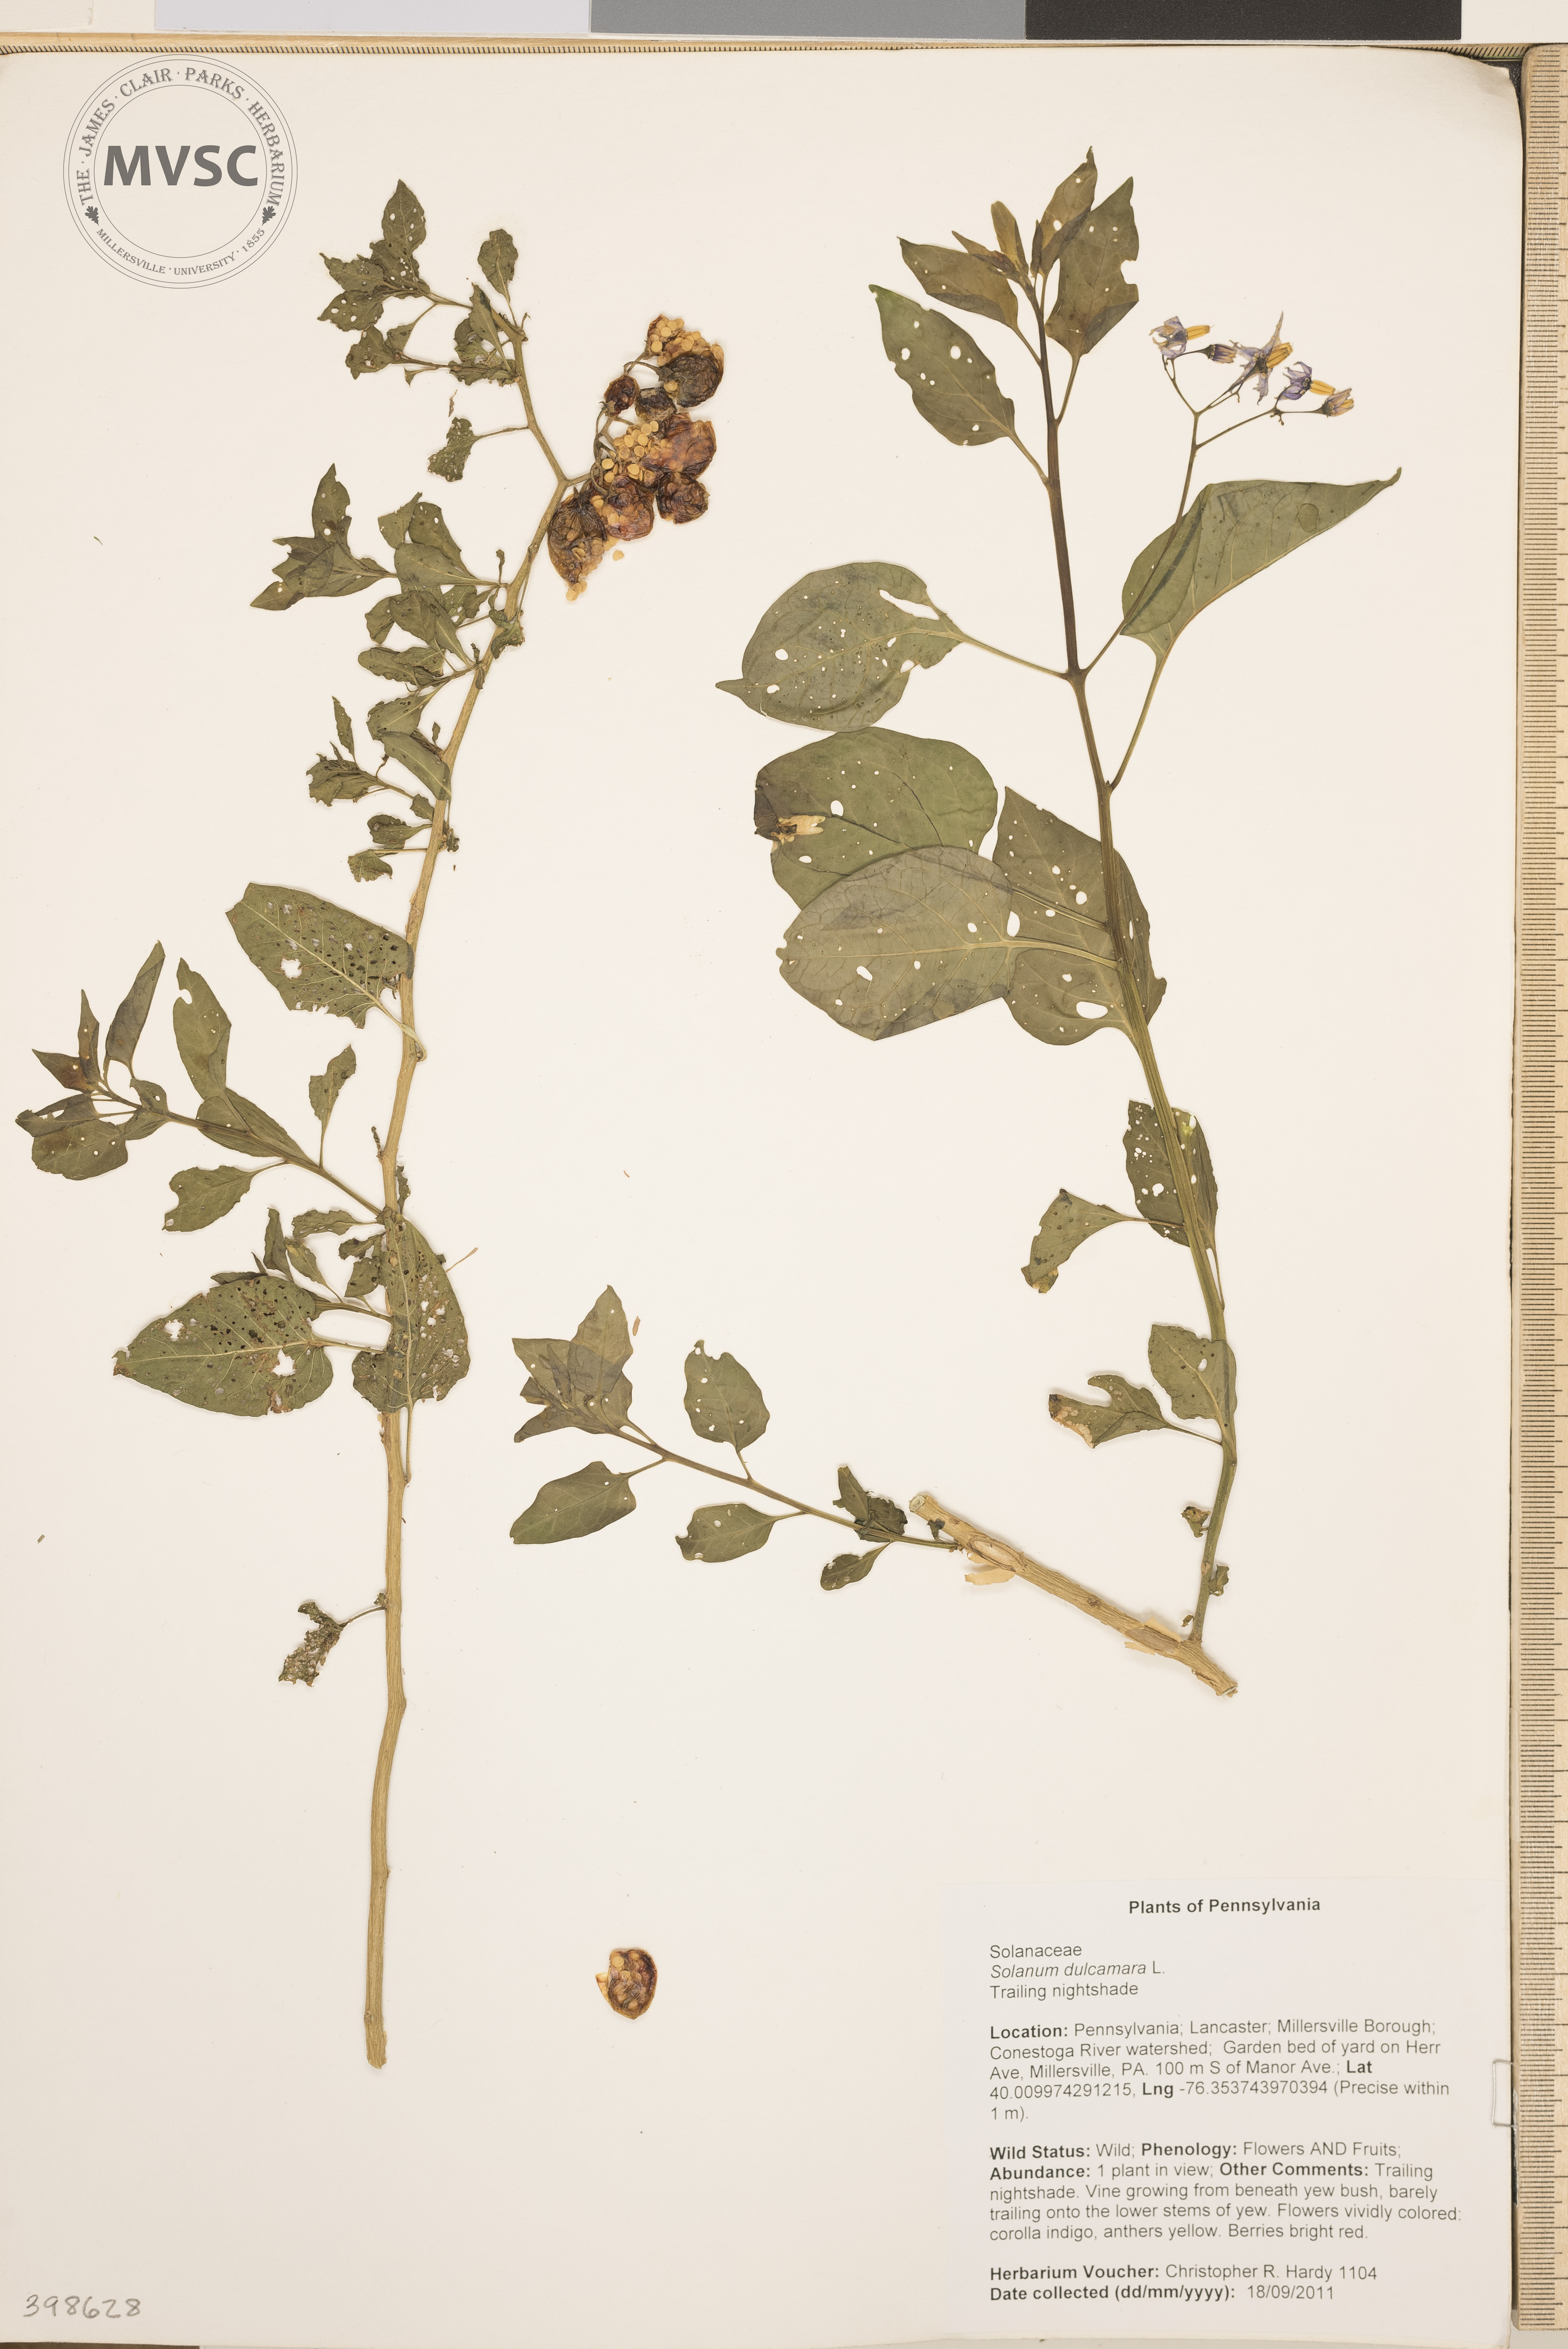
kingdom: Plantae
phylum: Tracheophyta
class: Magnoliopsida
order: Solanales
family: Solanaceae
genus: Solanum
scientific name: Solanum dulcamara
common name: Horse-nettle
